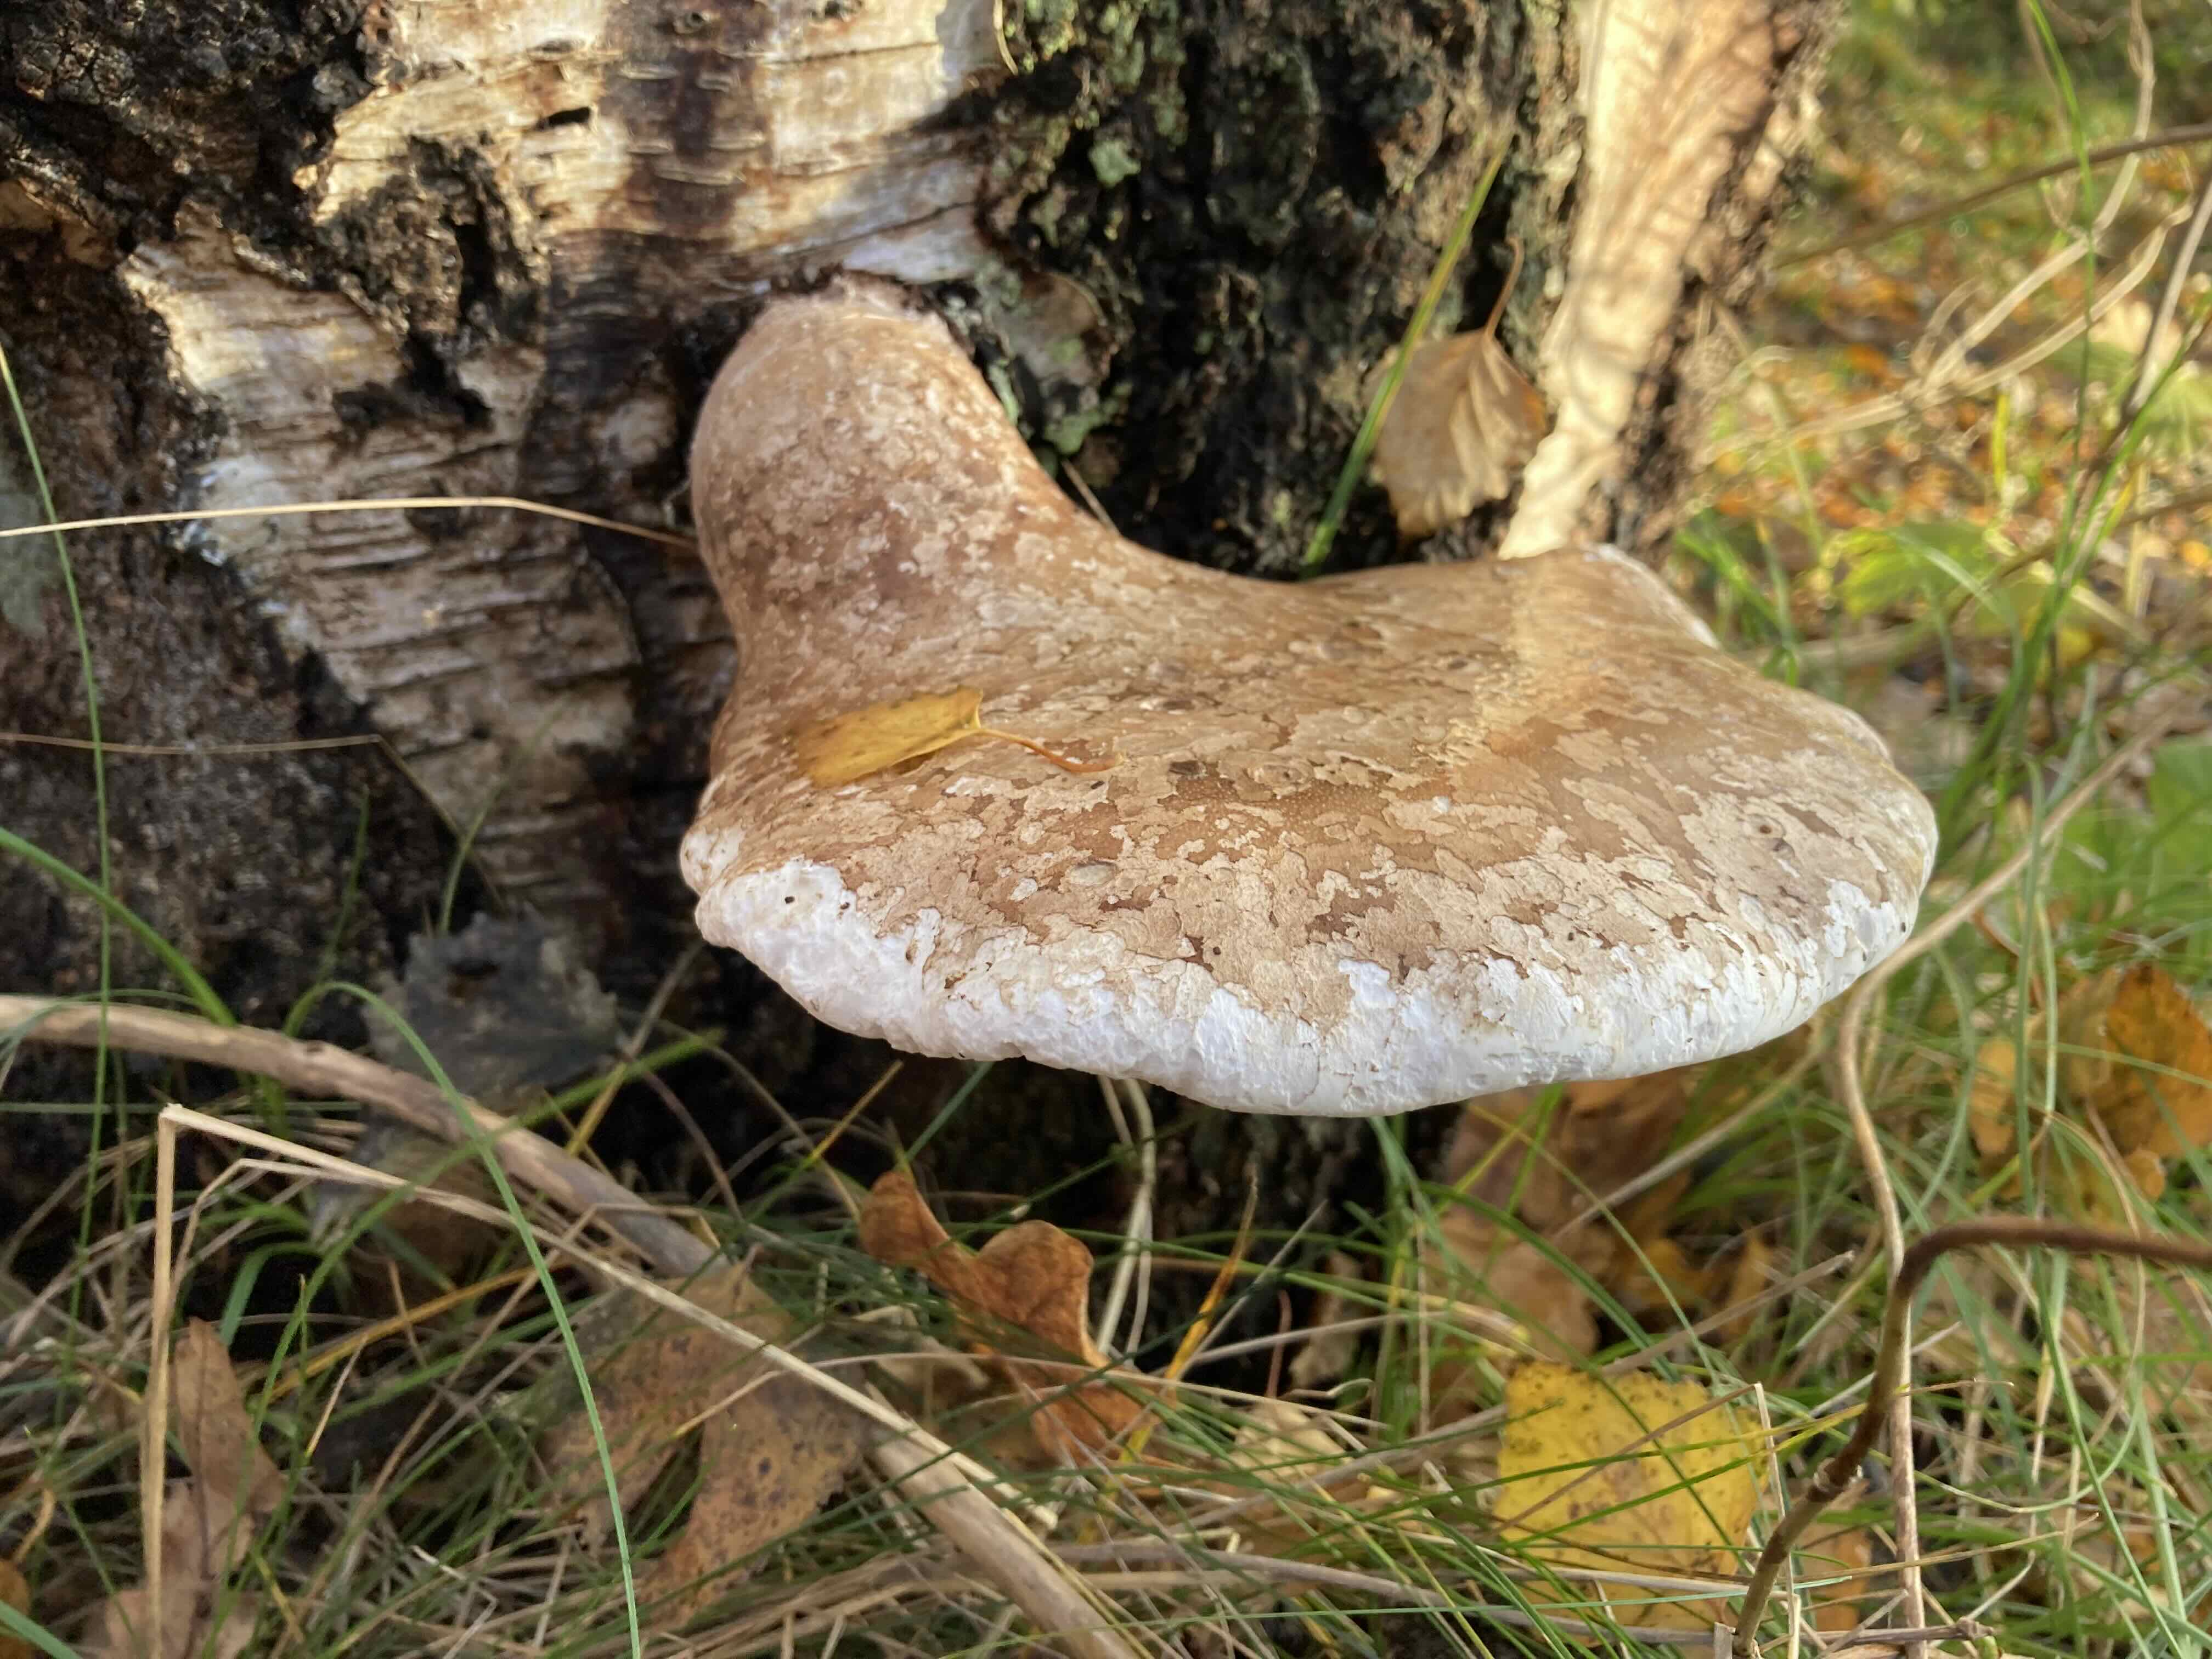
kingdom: Fungi
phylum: Basidiomycota
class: Agaricomycetes
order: Polyporales
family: Fomitopsidaceae
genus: Fomitopsis
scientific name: Fomitopsis betulina
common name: birkeporesvamp
